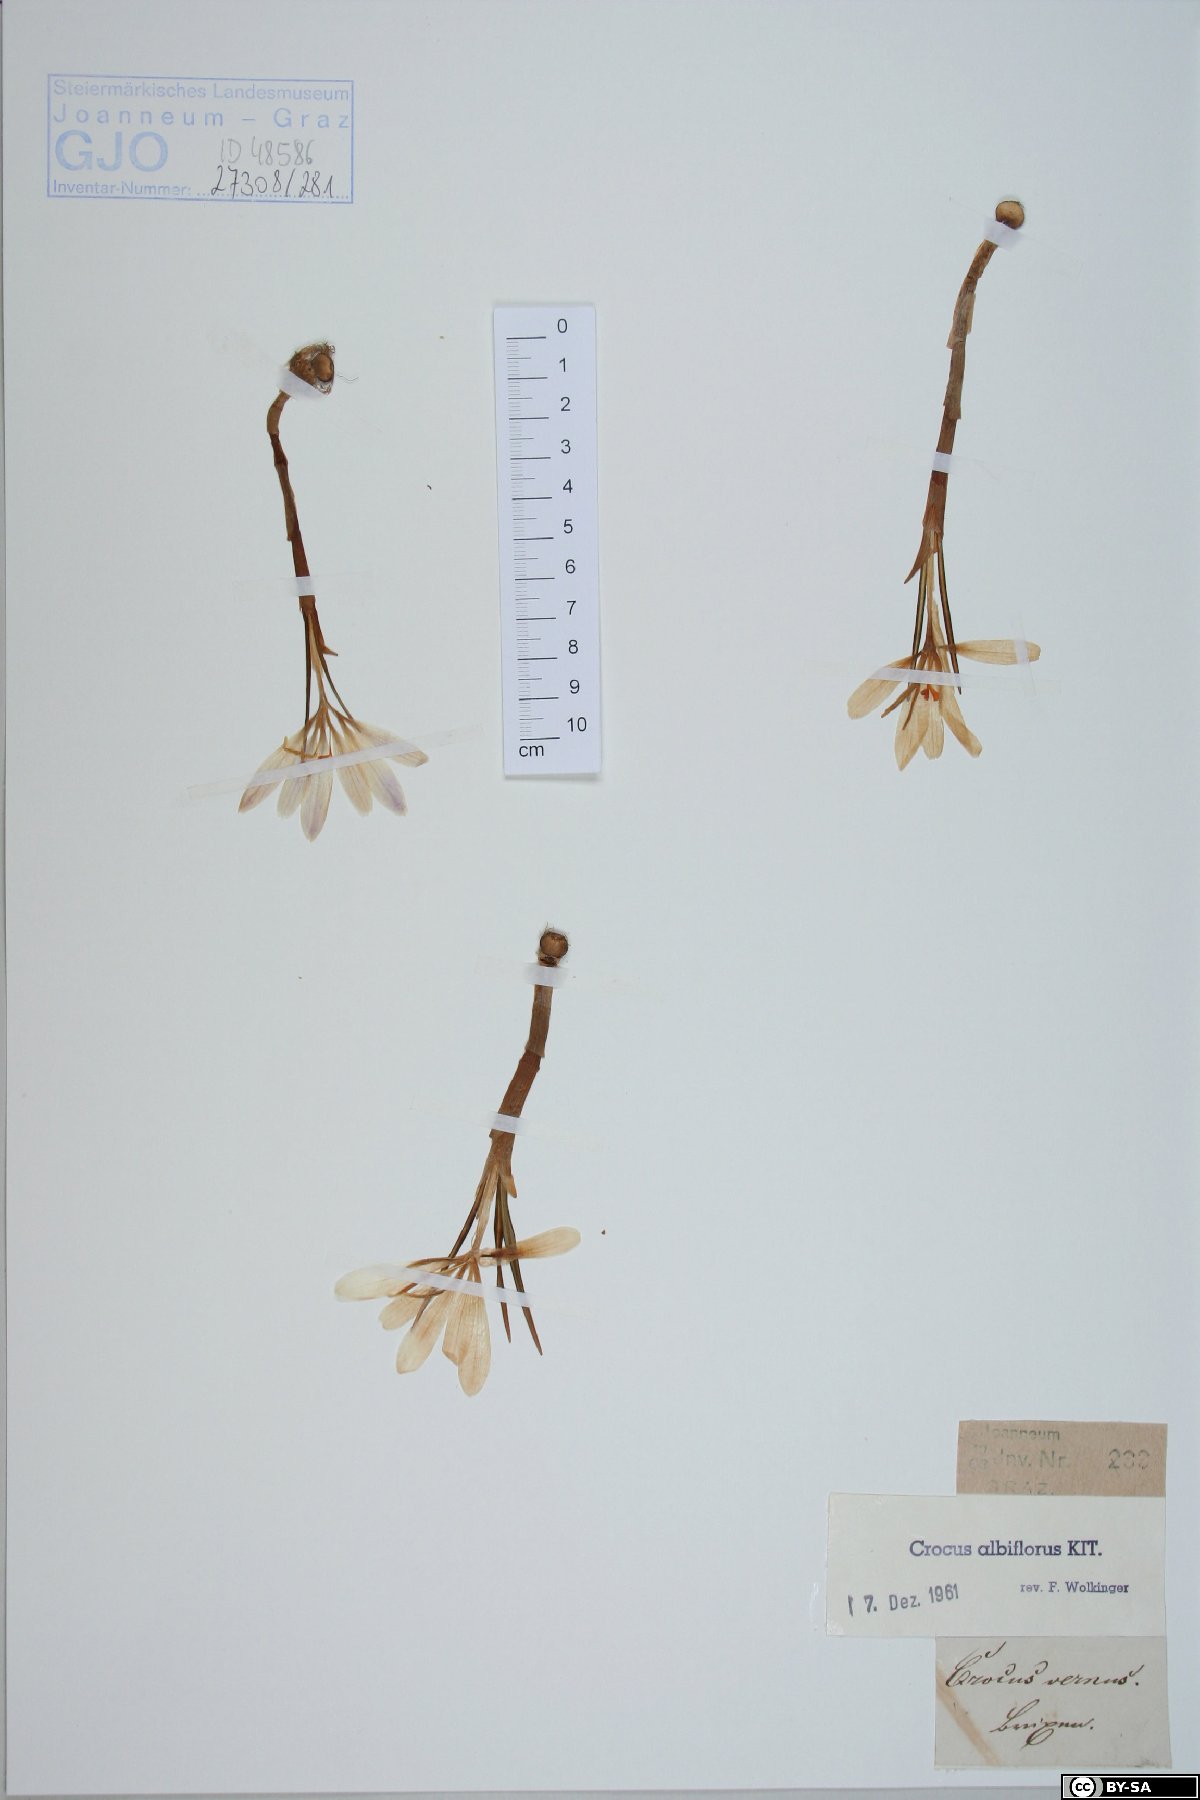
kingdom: Plantae
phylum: Tracheophyta
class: Liliopsida
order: Asparagales
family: Iridaceae
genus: Crocus
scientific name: Crocus vernus
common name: Spring crocus
